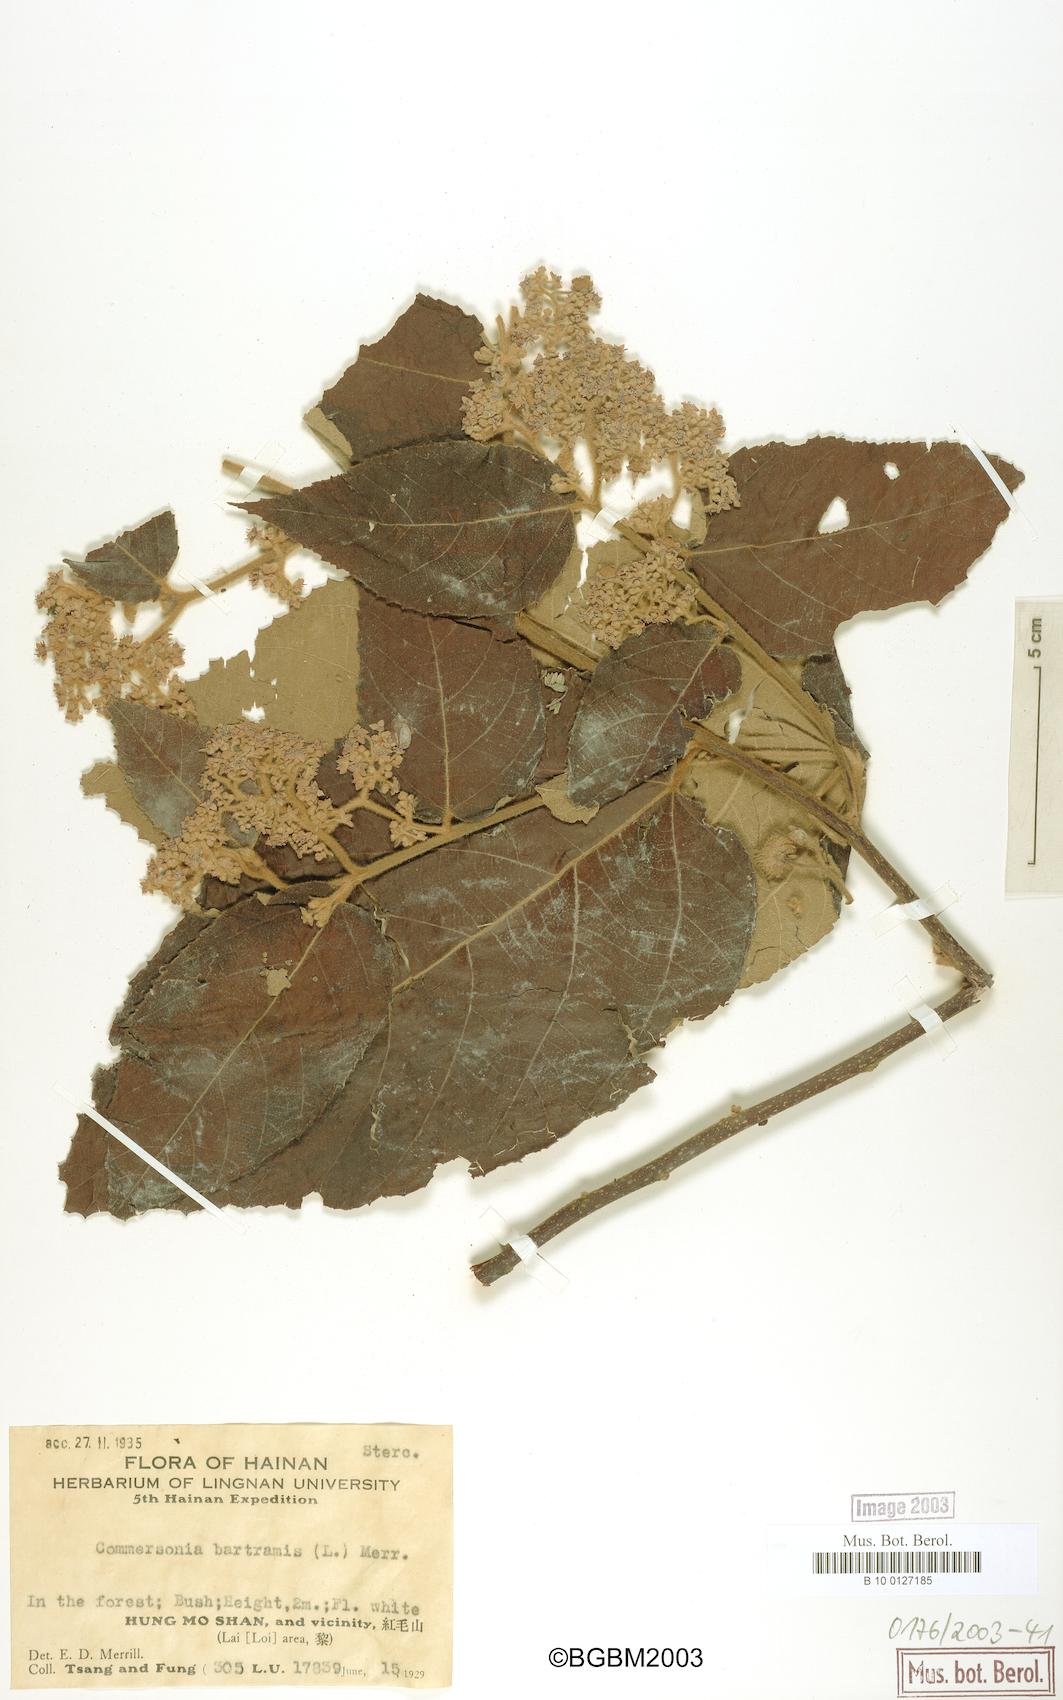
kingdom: Plantae
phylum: Tracheophyta
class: Magnoliopsida
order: Malvales
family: Malvaceae
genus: Commersonia
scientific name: Commersonia bartramia
